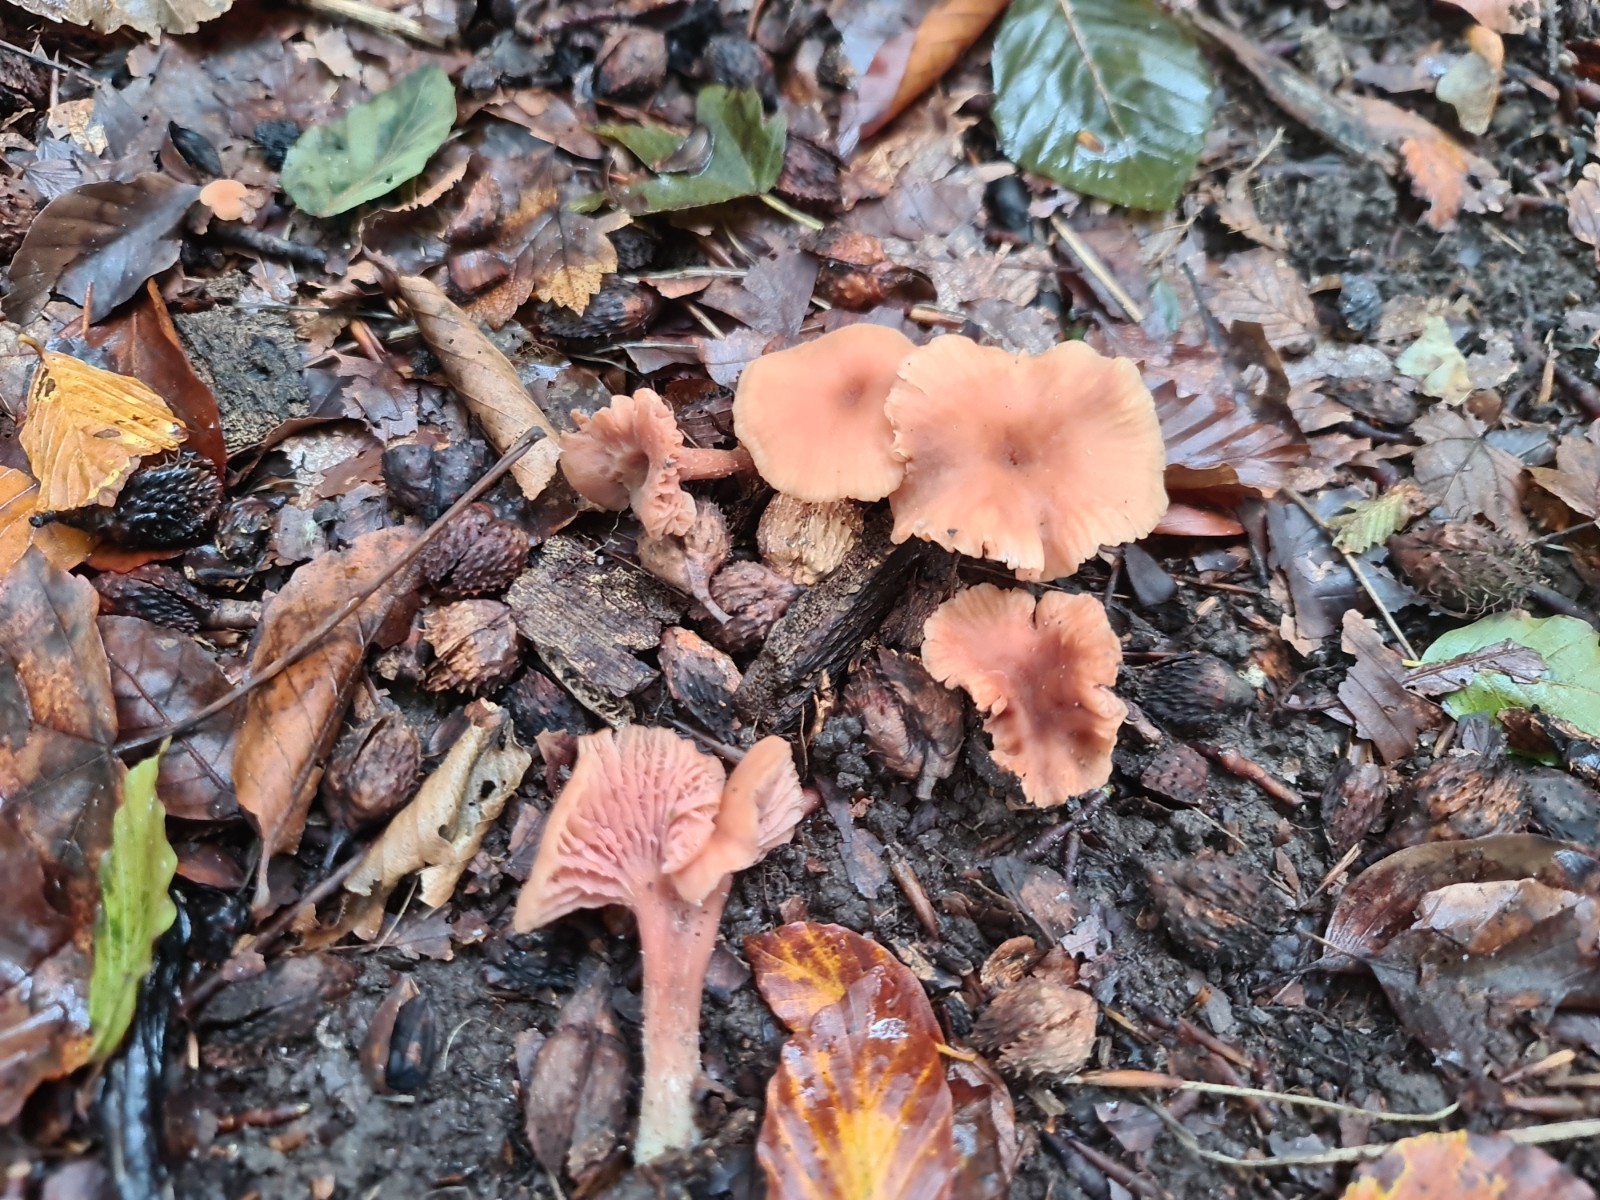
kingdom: Fungi
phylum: Basidiomycota
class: Agaricomycetes
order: Agaricales
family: Hydnangiaceae
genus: Laccaria
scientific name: Laccaria laccata
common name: rød ametysthat
